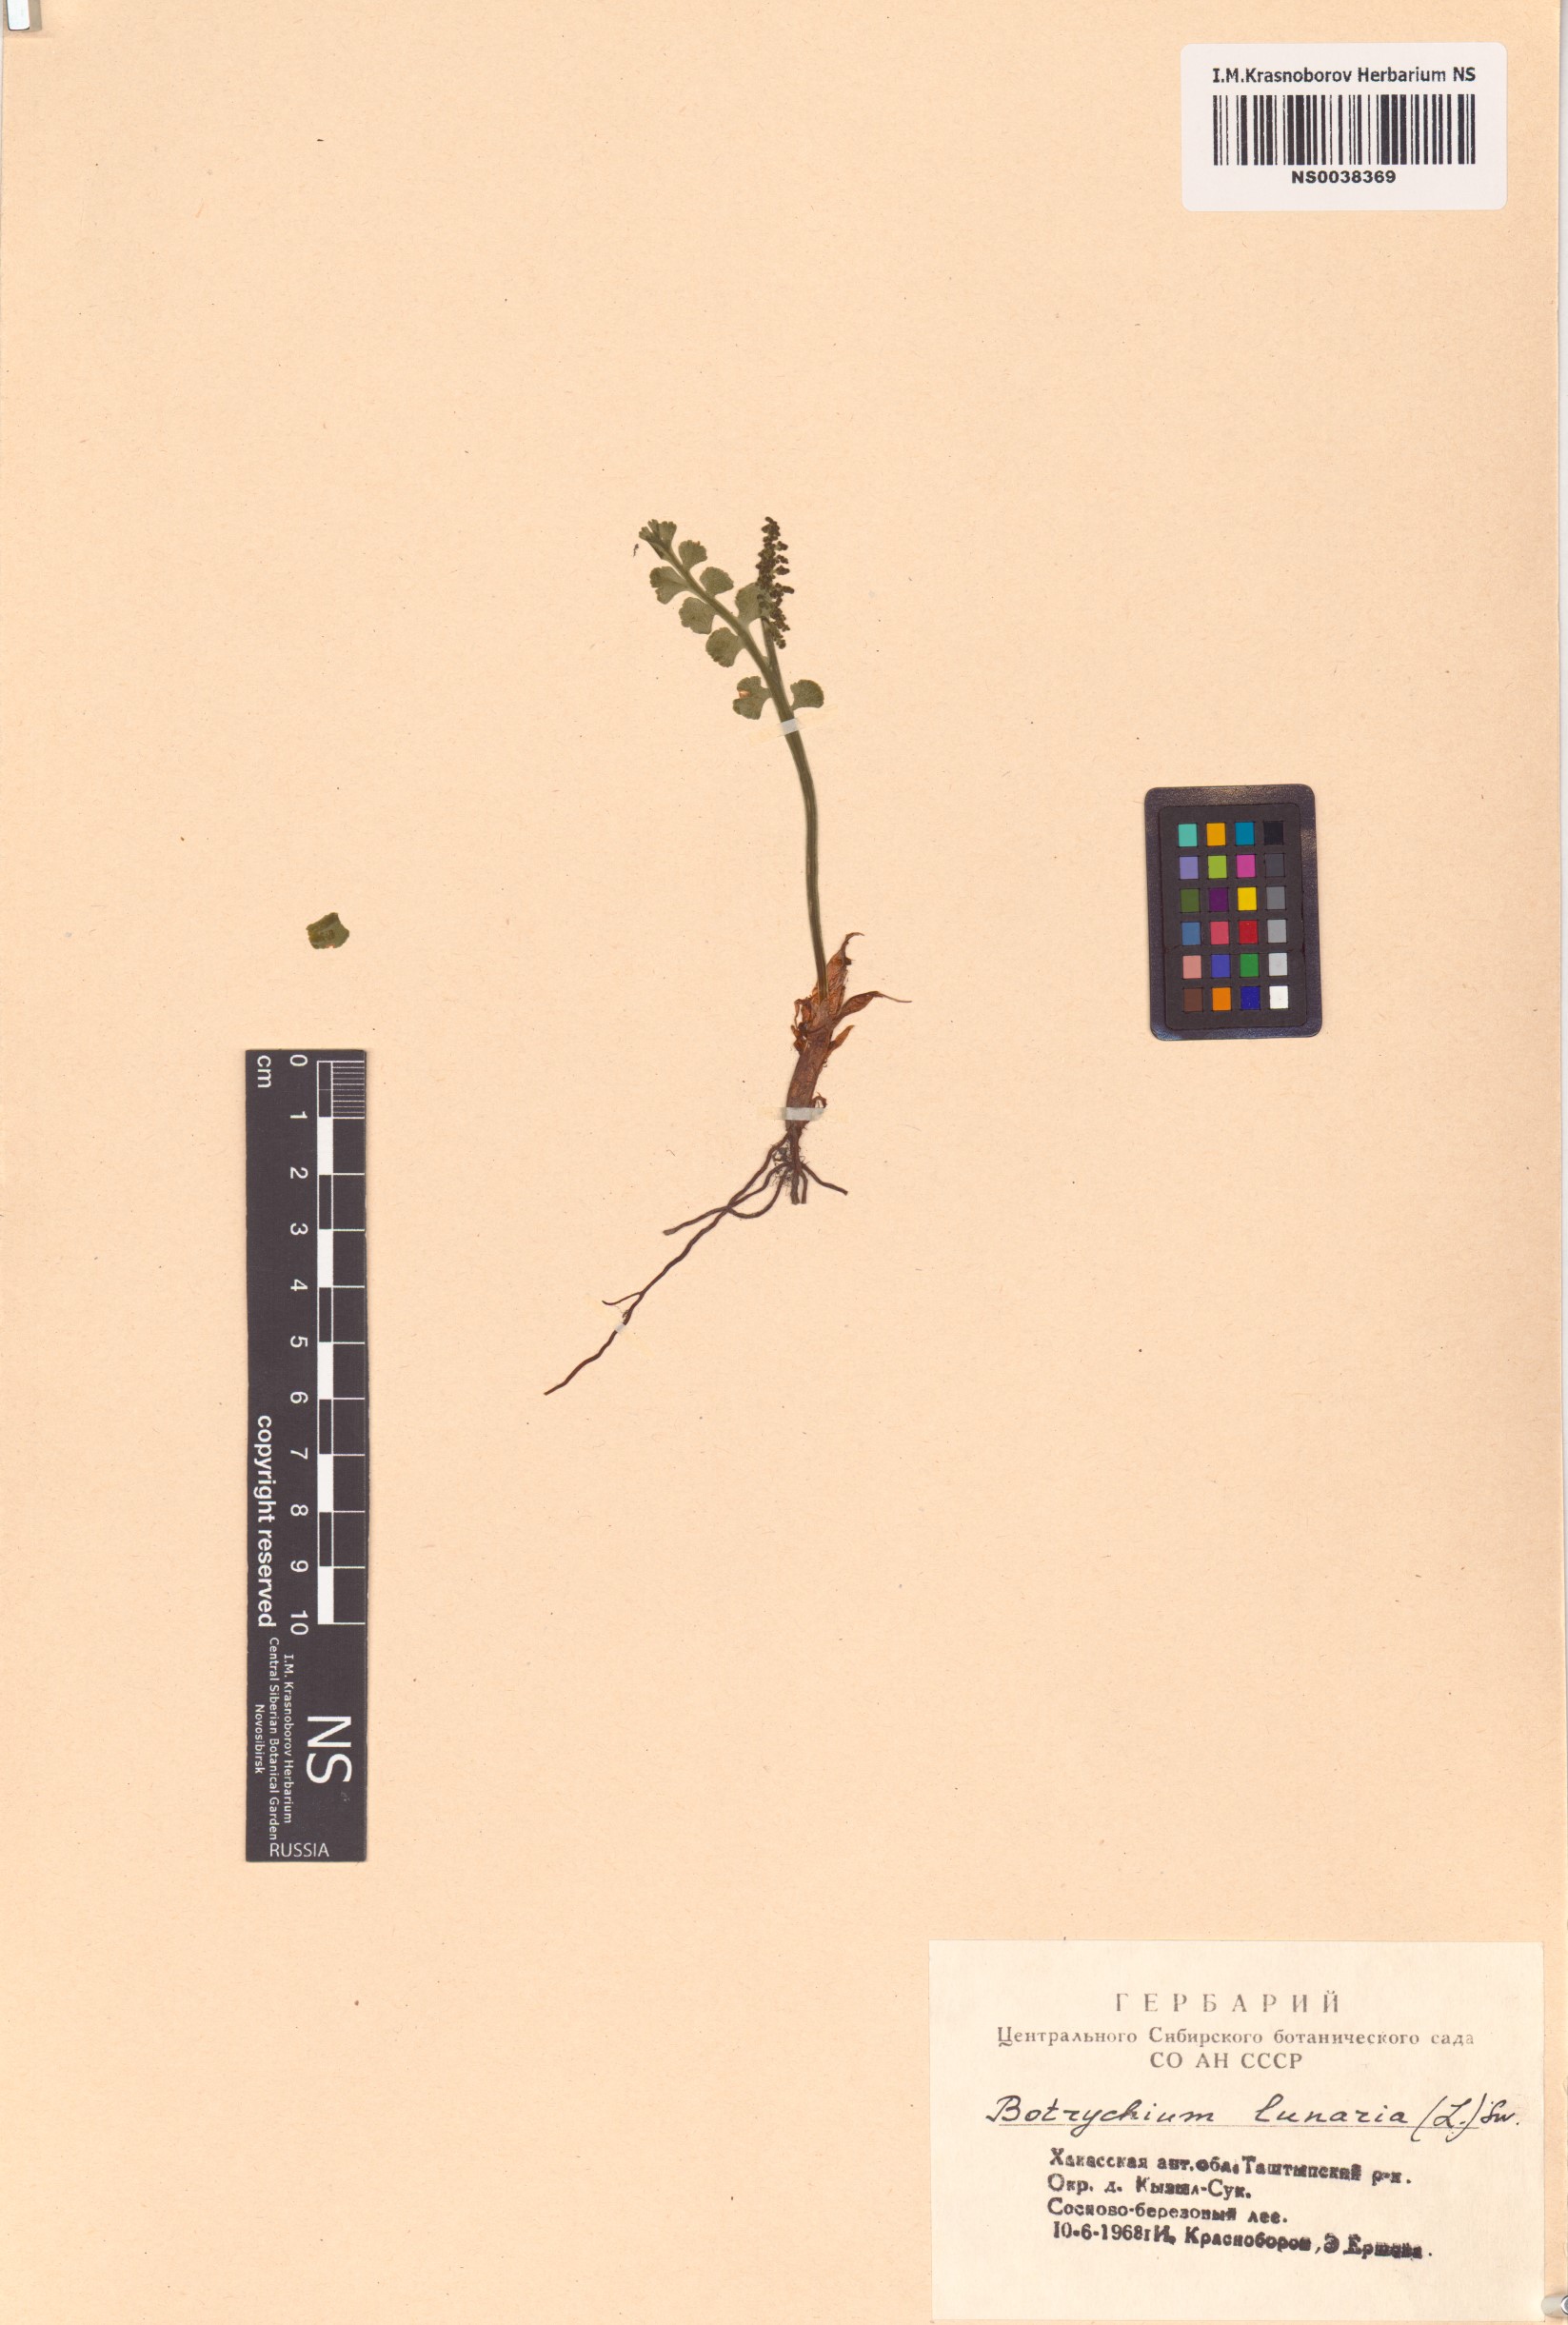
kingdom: Plantae
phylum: Tracheophyta
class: Polypodiopsida
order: Ophioglossales
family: Ophioglossaceae
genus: Botrychium
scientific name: Botrychium lunaria
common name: Moonwort
